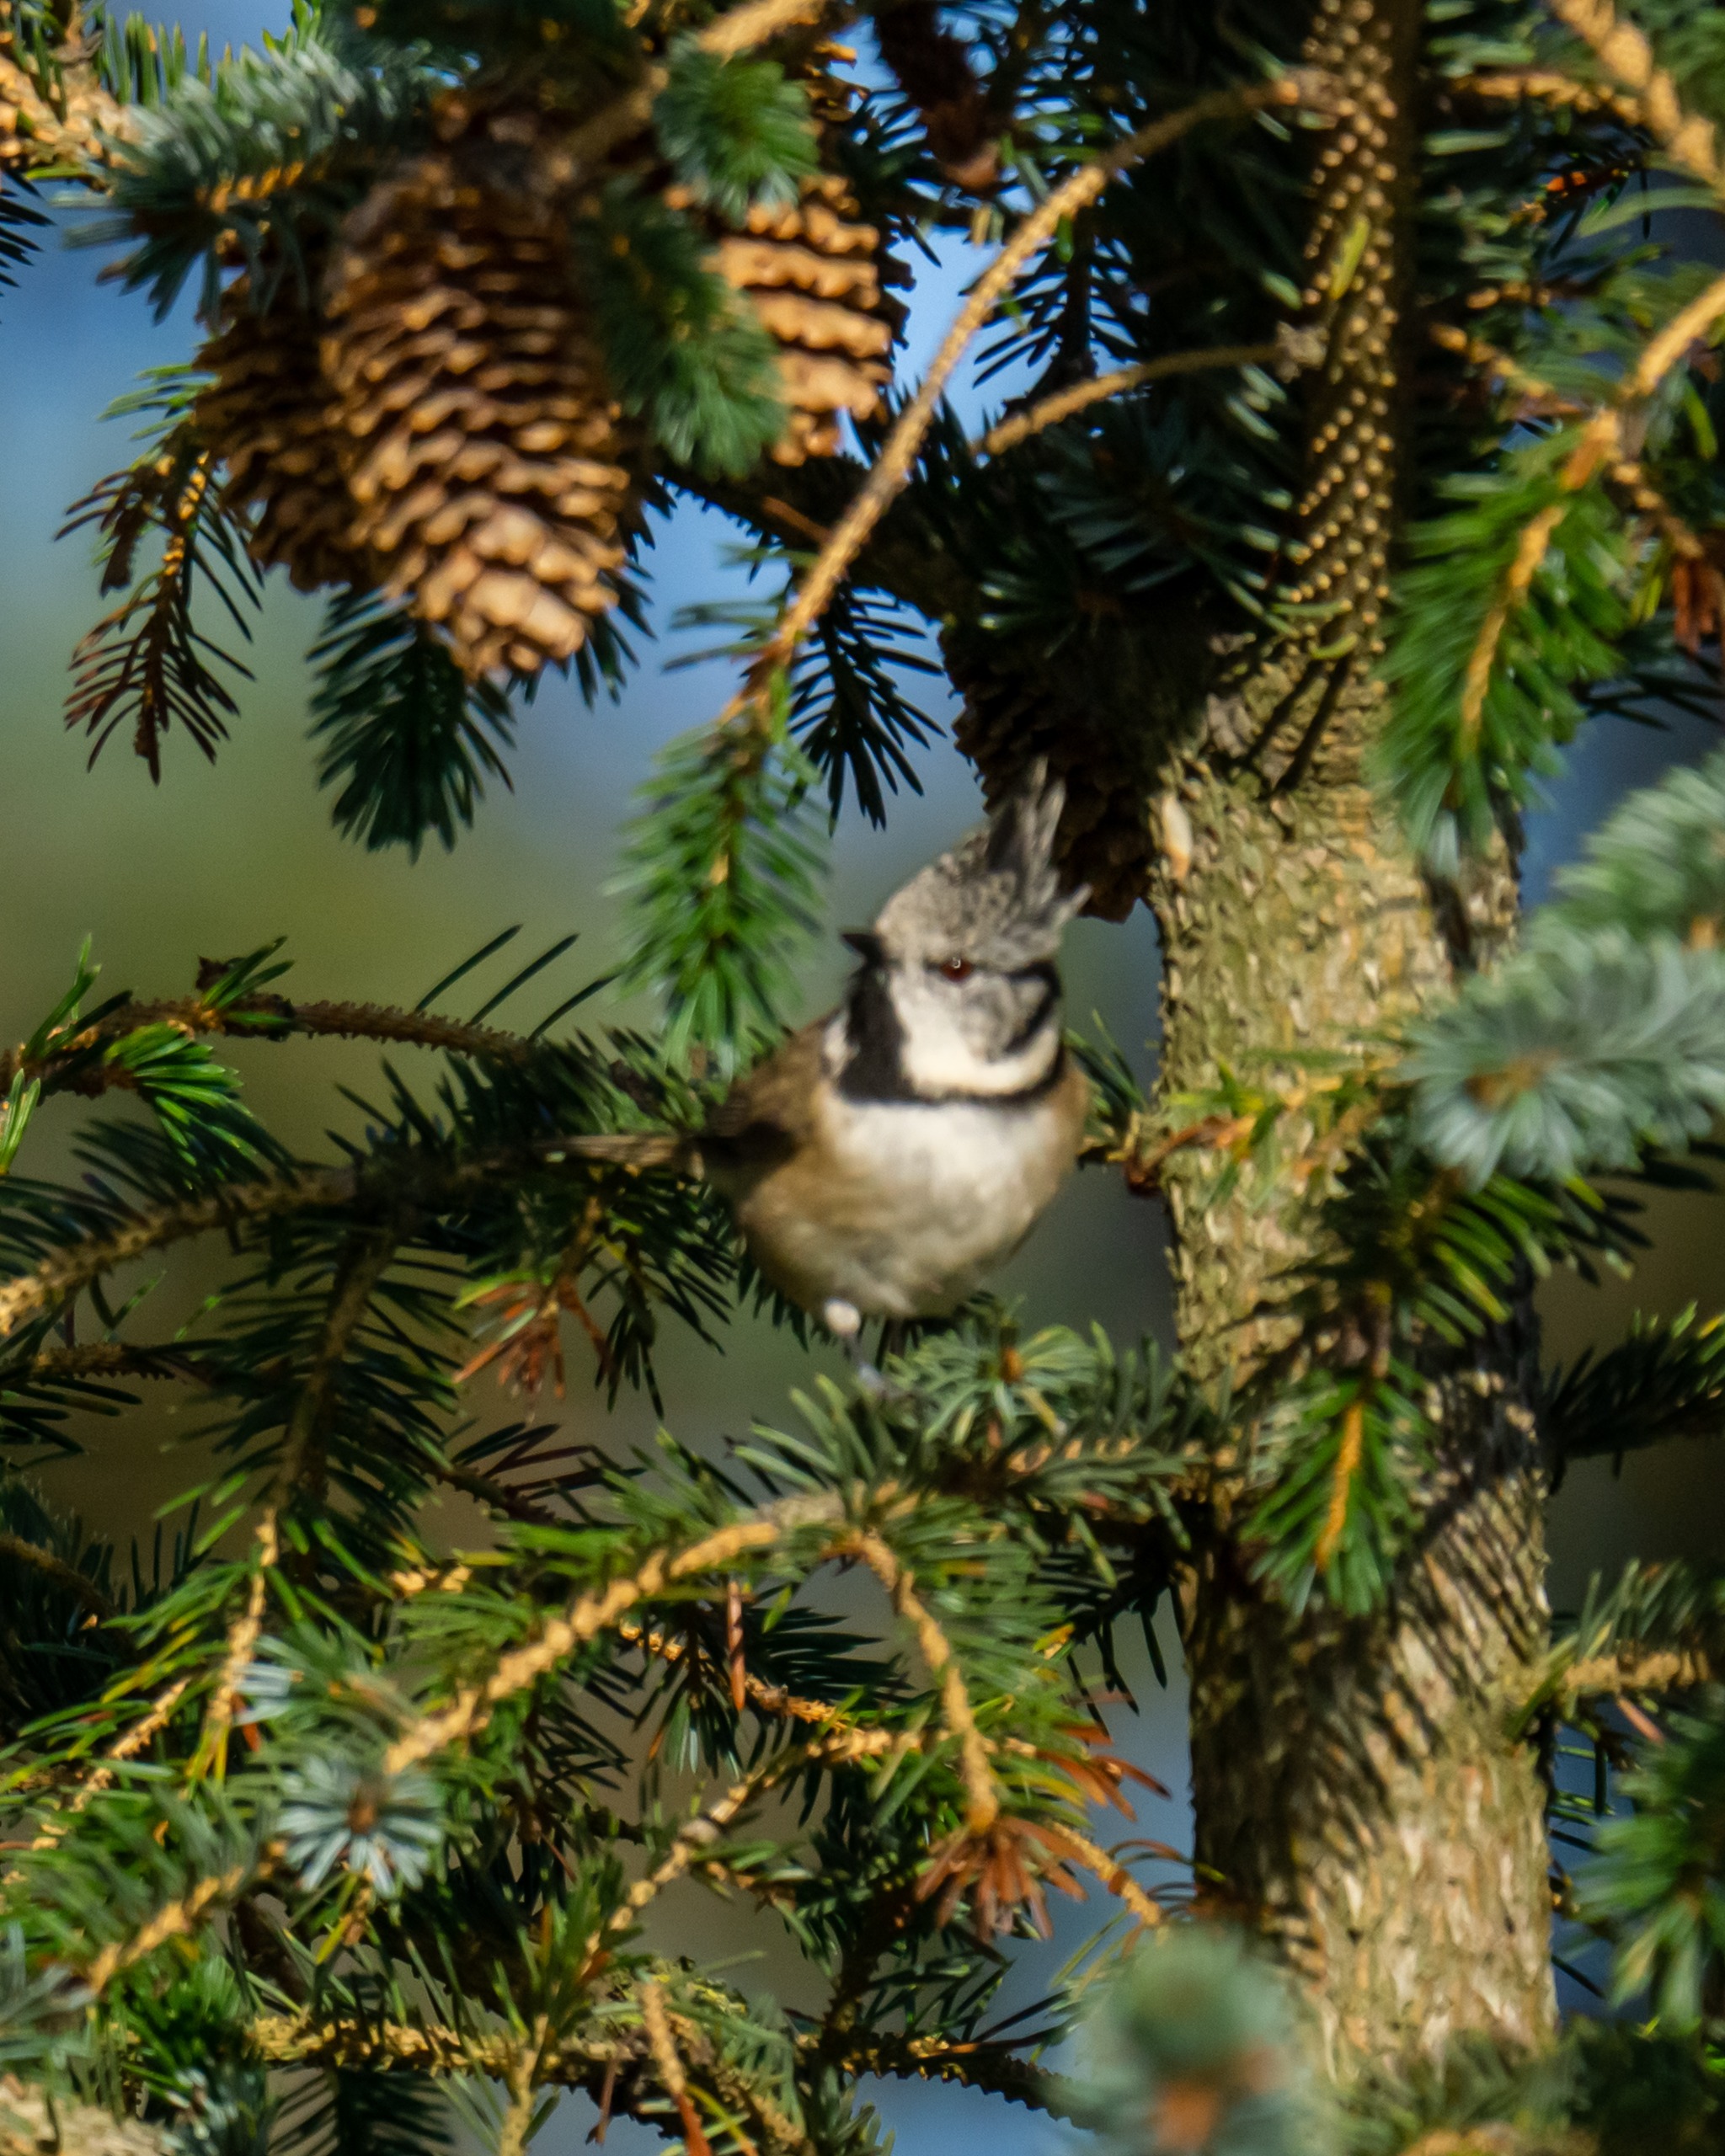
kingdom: Animalia
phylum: Chordata
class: Aves
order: Passeriformes
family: Paridae
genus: Lophophanes
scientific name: Lophophanes cristatus
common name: Topmejse
